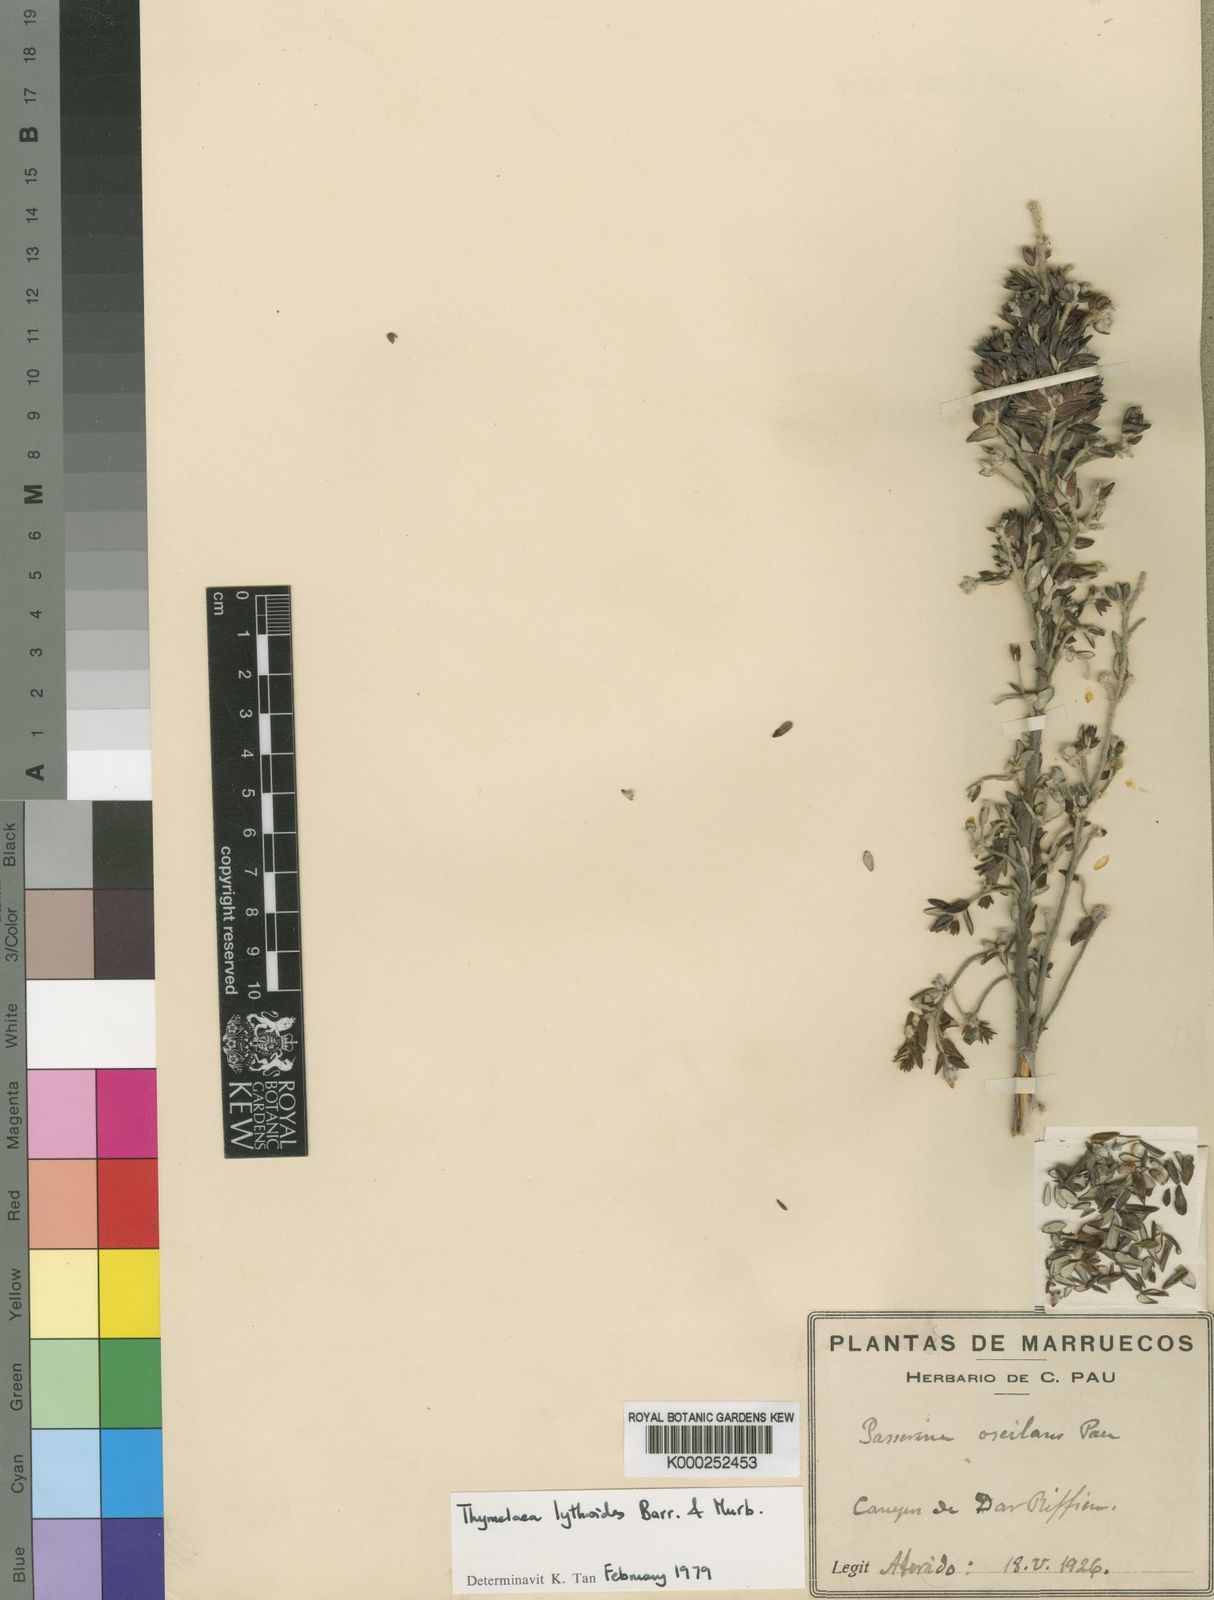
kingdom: Plantae
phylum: Tracheophyta
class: Magnoliopsida
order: Malvales
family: Thymelaeaceae
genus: Thymelaea
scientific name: Thymelaea lythroides
